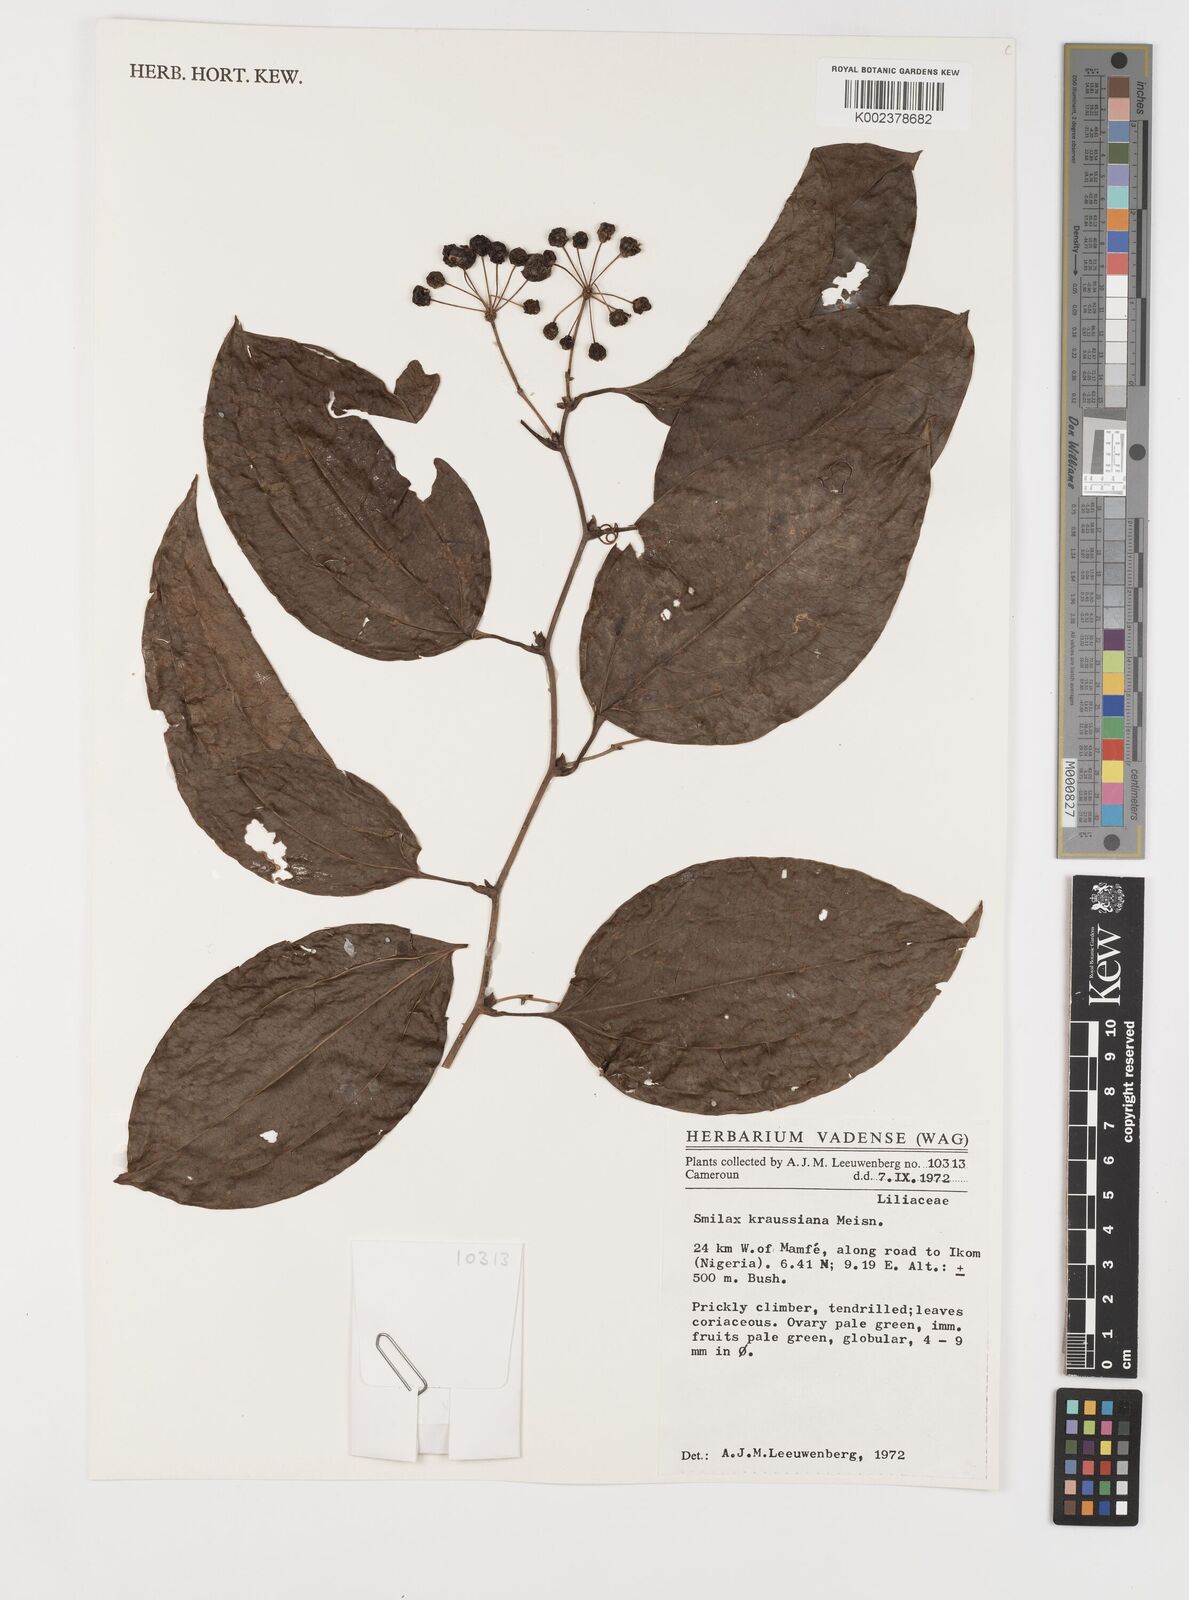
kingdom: Plantae
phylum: Tracheophyta
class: Liliopsida
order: Liliales
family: Smilacaceae
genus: Smilax
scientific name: Smilax anceps
